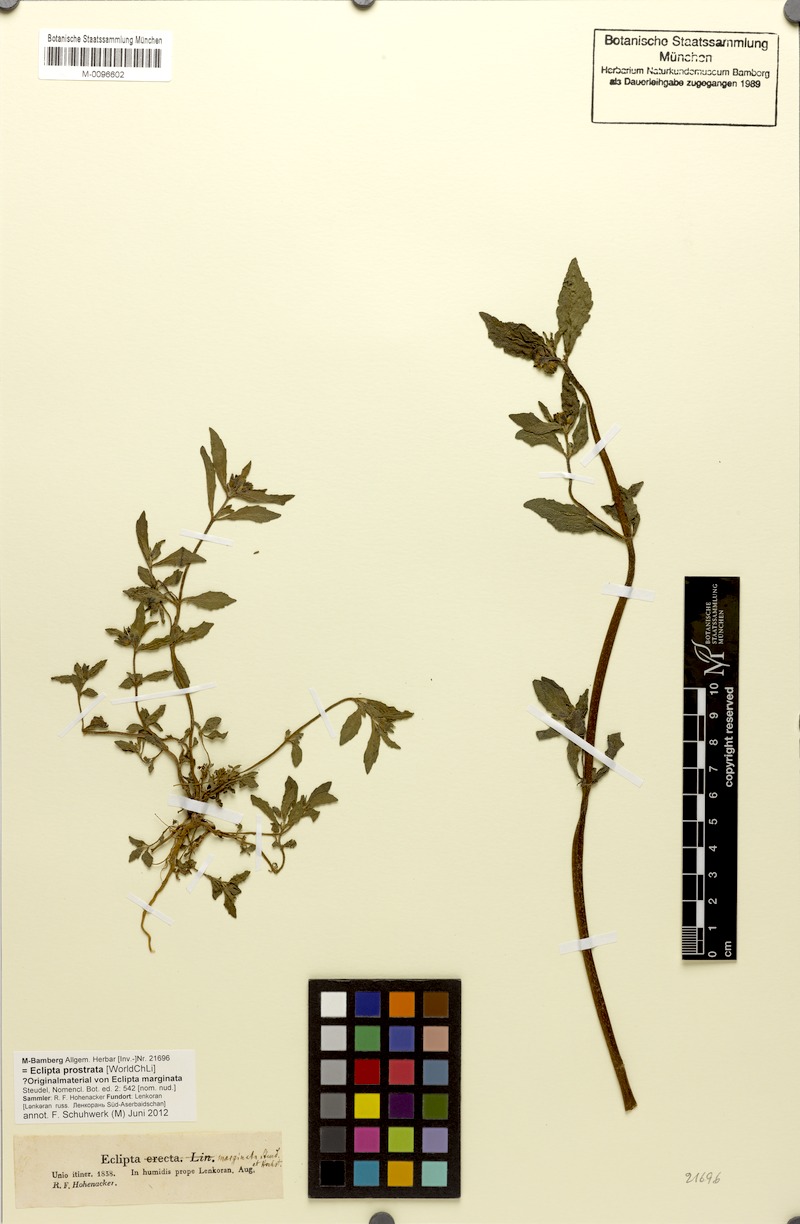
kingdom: Plantae
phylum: Tracheophyta
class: Magnoliopsida
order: Asterales
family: Asteraceae
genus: Eclipta
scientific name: Eclipta prostrata
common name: False daisy
